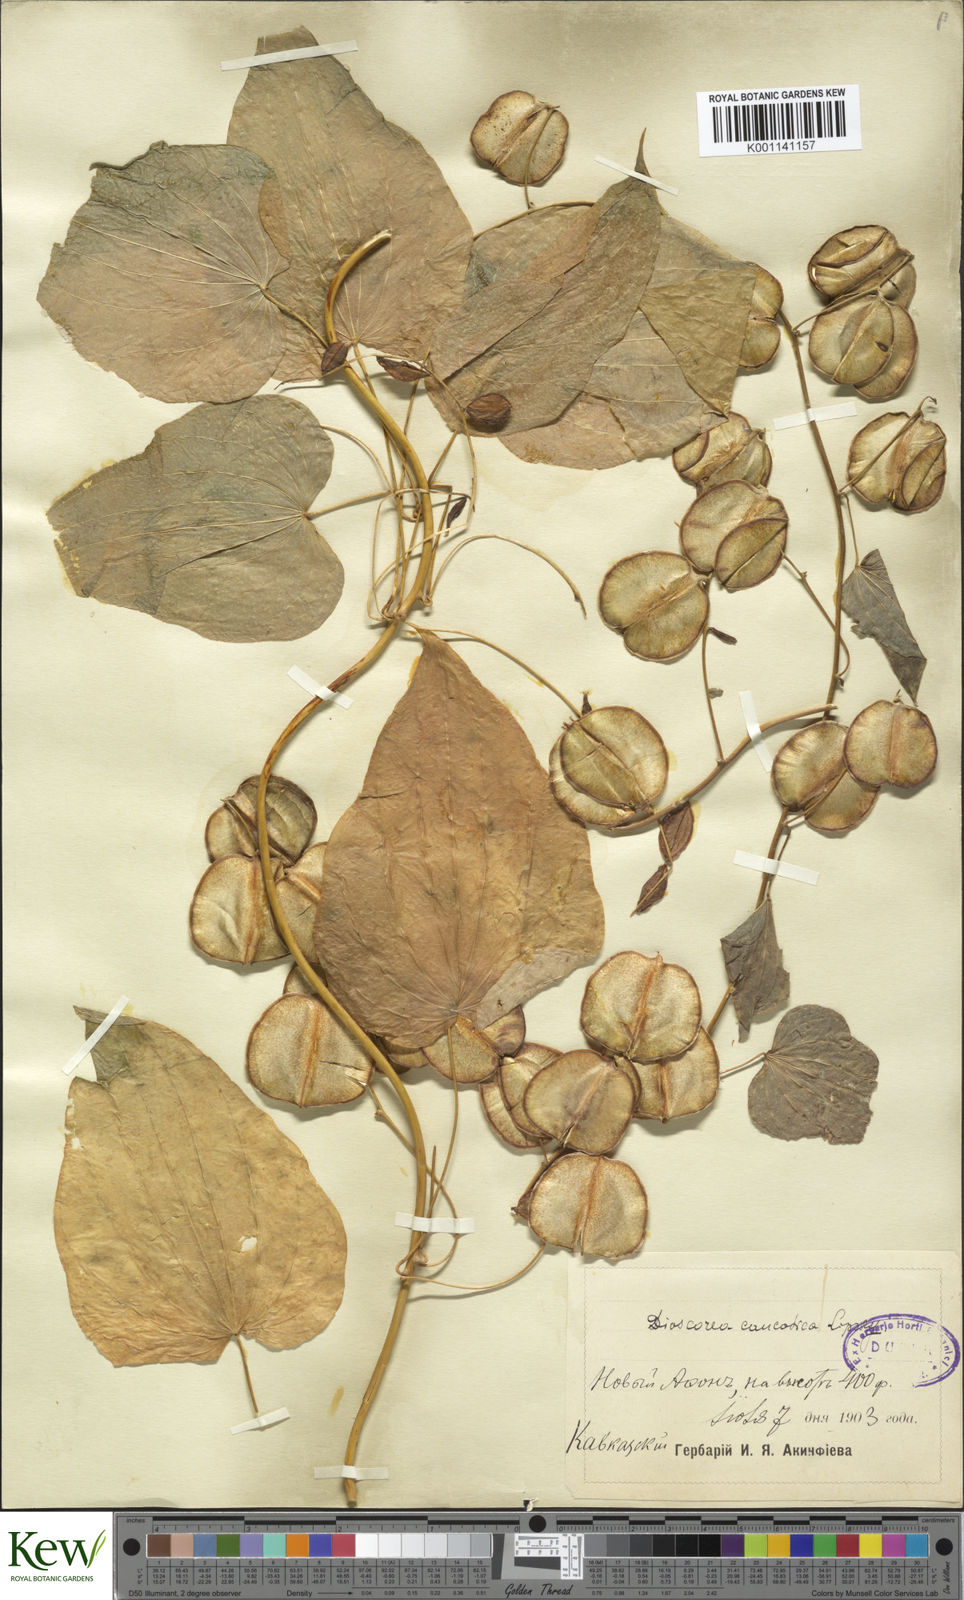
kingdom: Plantae
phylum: Tracheophyta
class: Liliopsida
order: Dioscoreales
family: Dioscoreaceae
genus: Dioscorea
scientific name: Dioscorea caucasica
